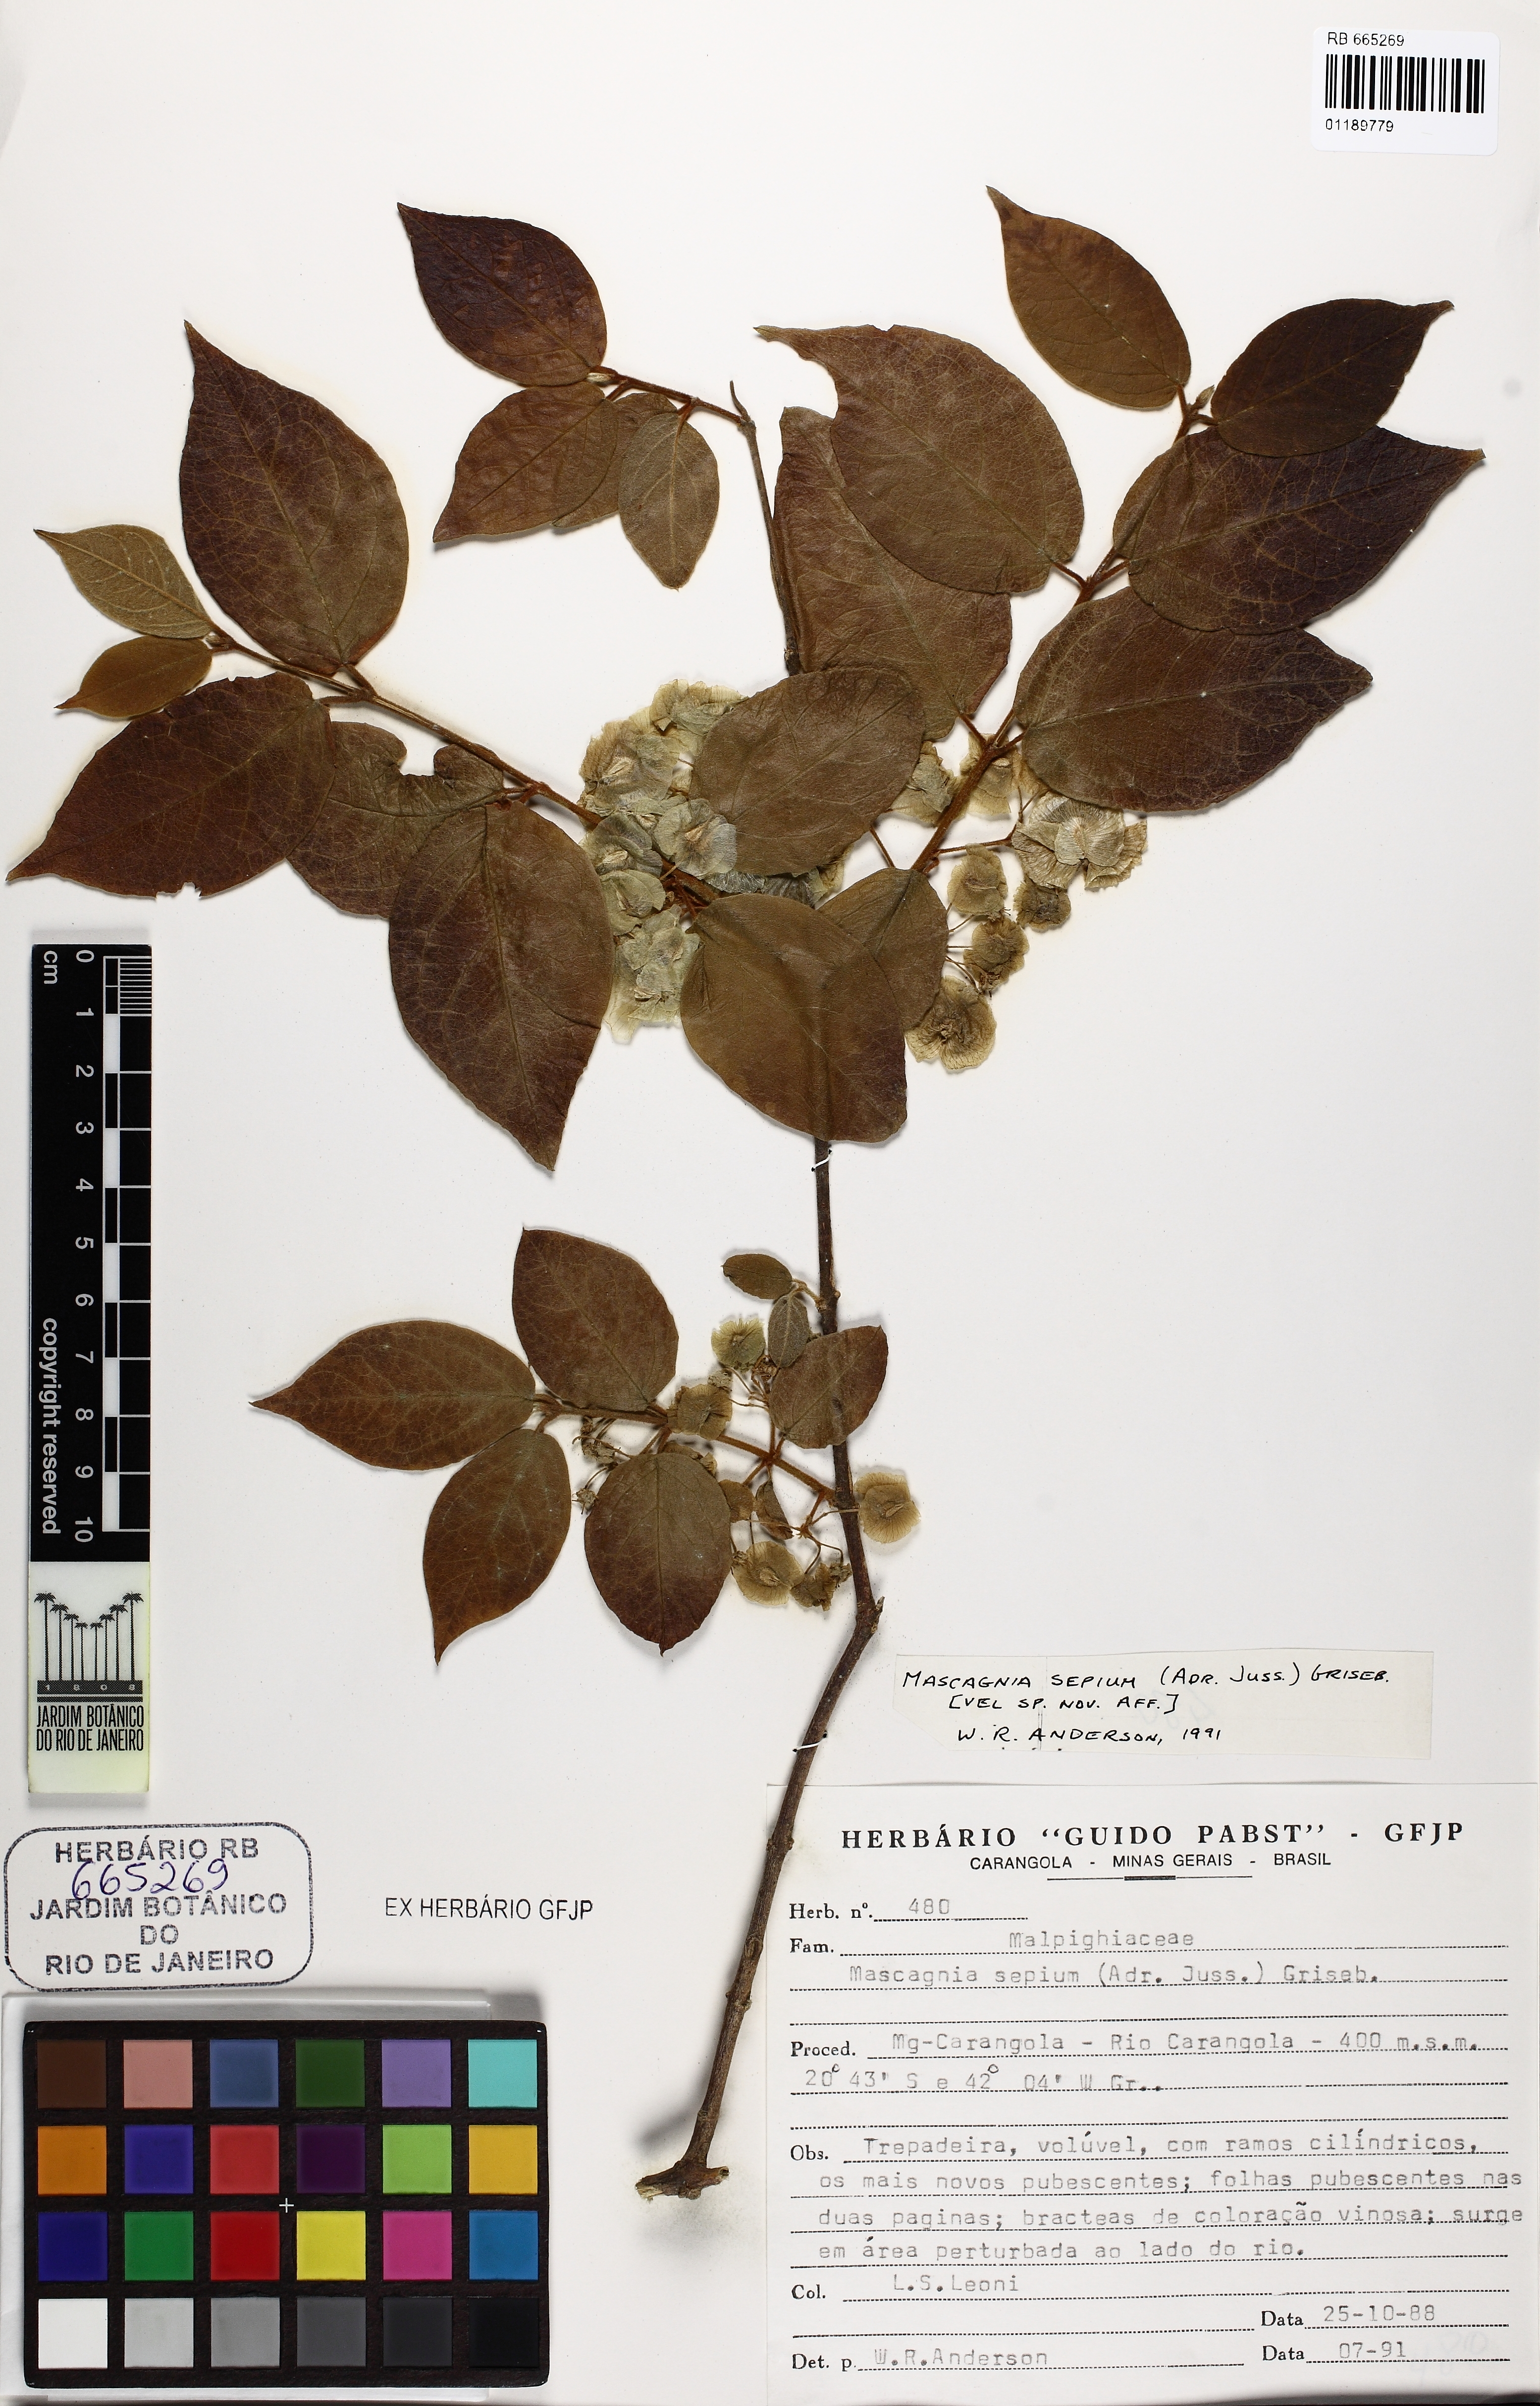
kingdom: Plantae
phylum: Tracheophyta
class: Magnoliopsida
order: Malpighiales
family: Malpighiaceae
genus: Mascagnia
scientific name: Mascagnia sepium
